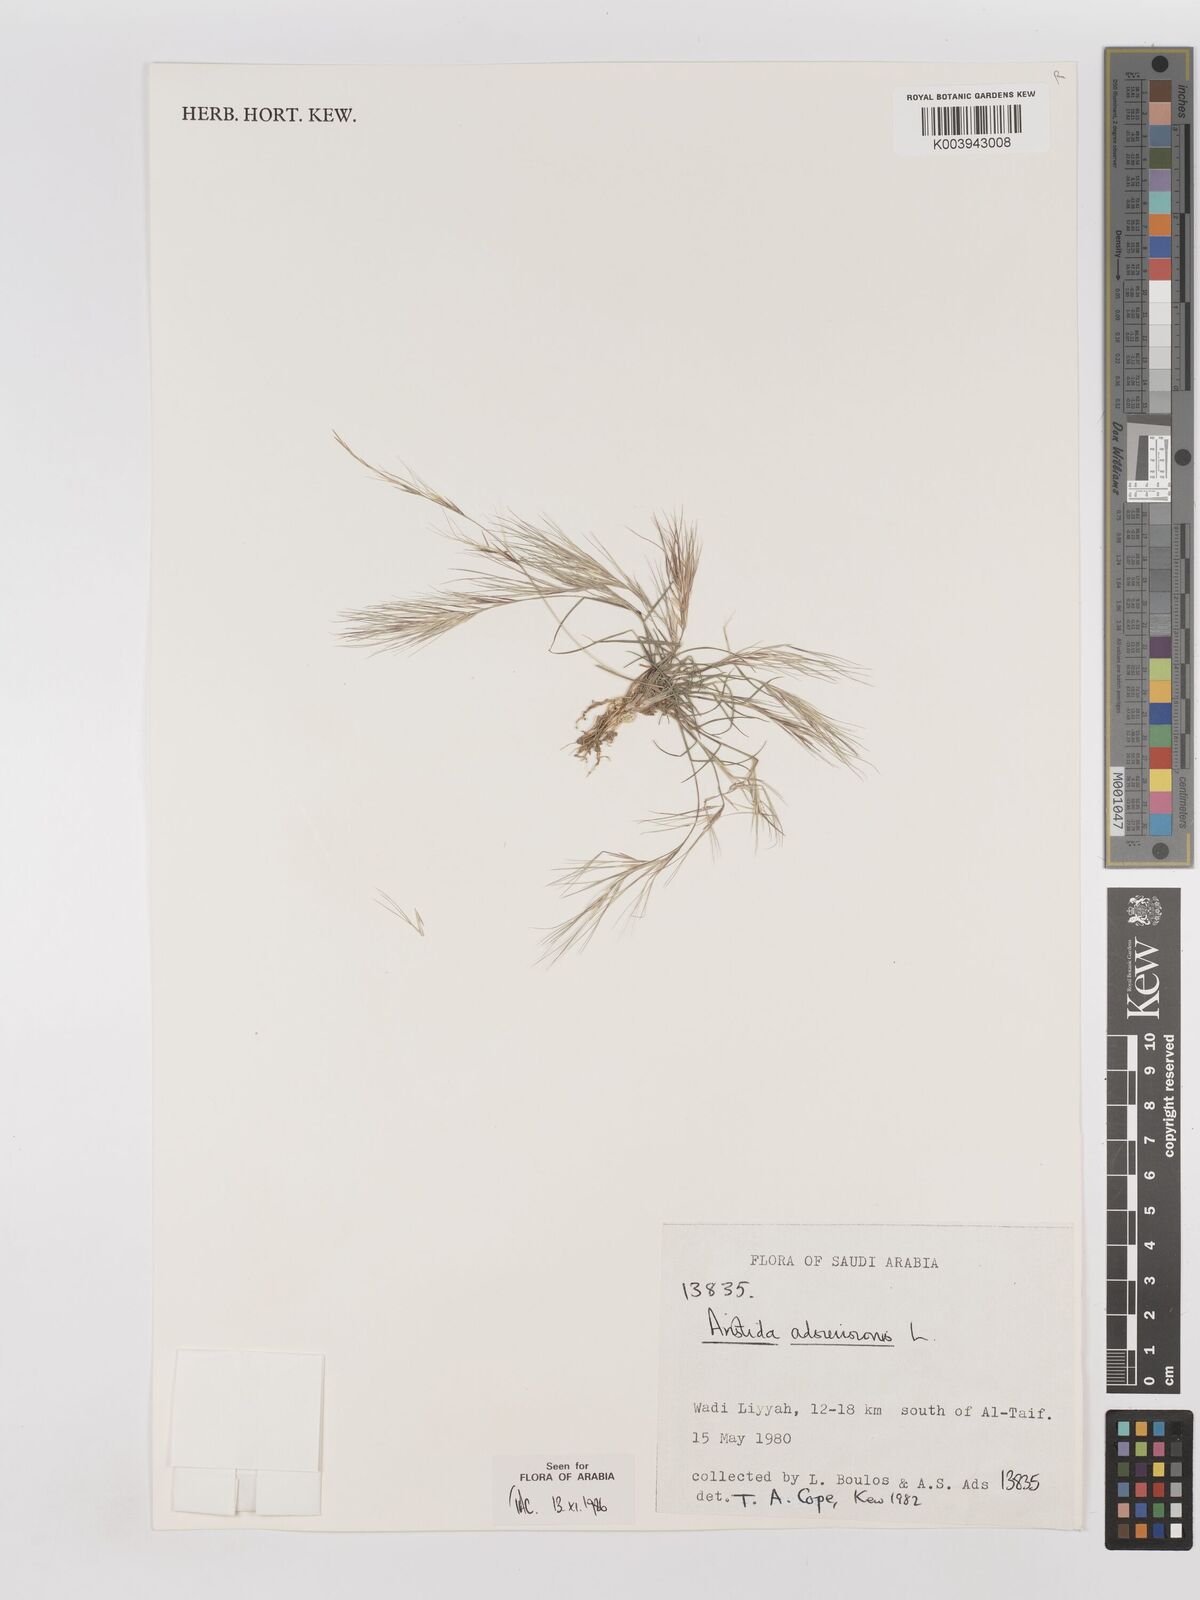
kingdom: Plantae
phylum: Tracheophyta
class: Liliopsida
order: Poales
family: Poaceae
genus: Aristida
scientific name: Aristida adscensionis
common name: Sixweeks threeawn
